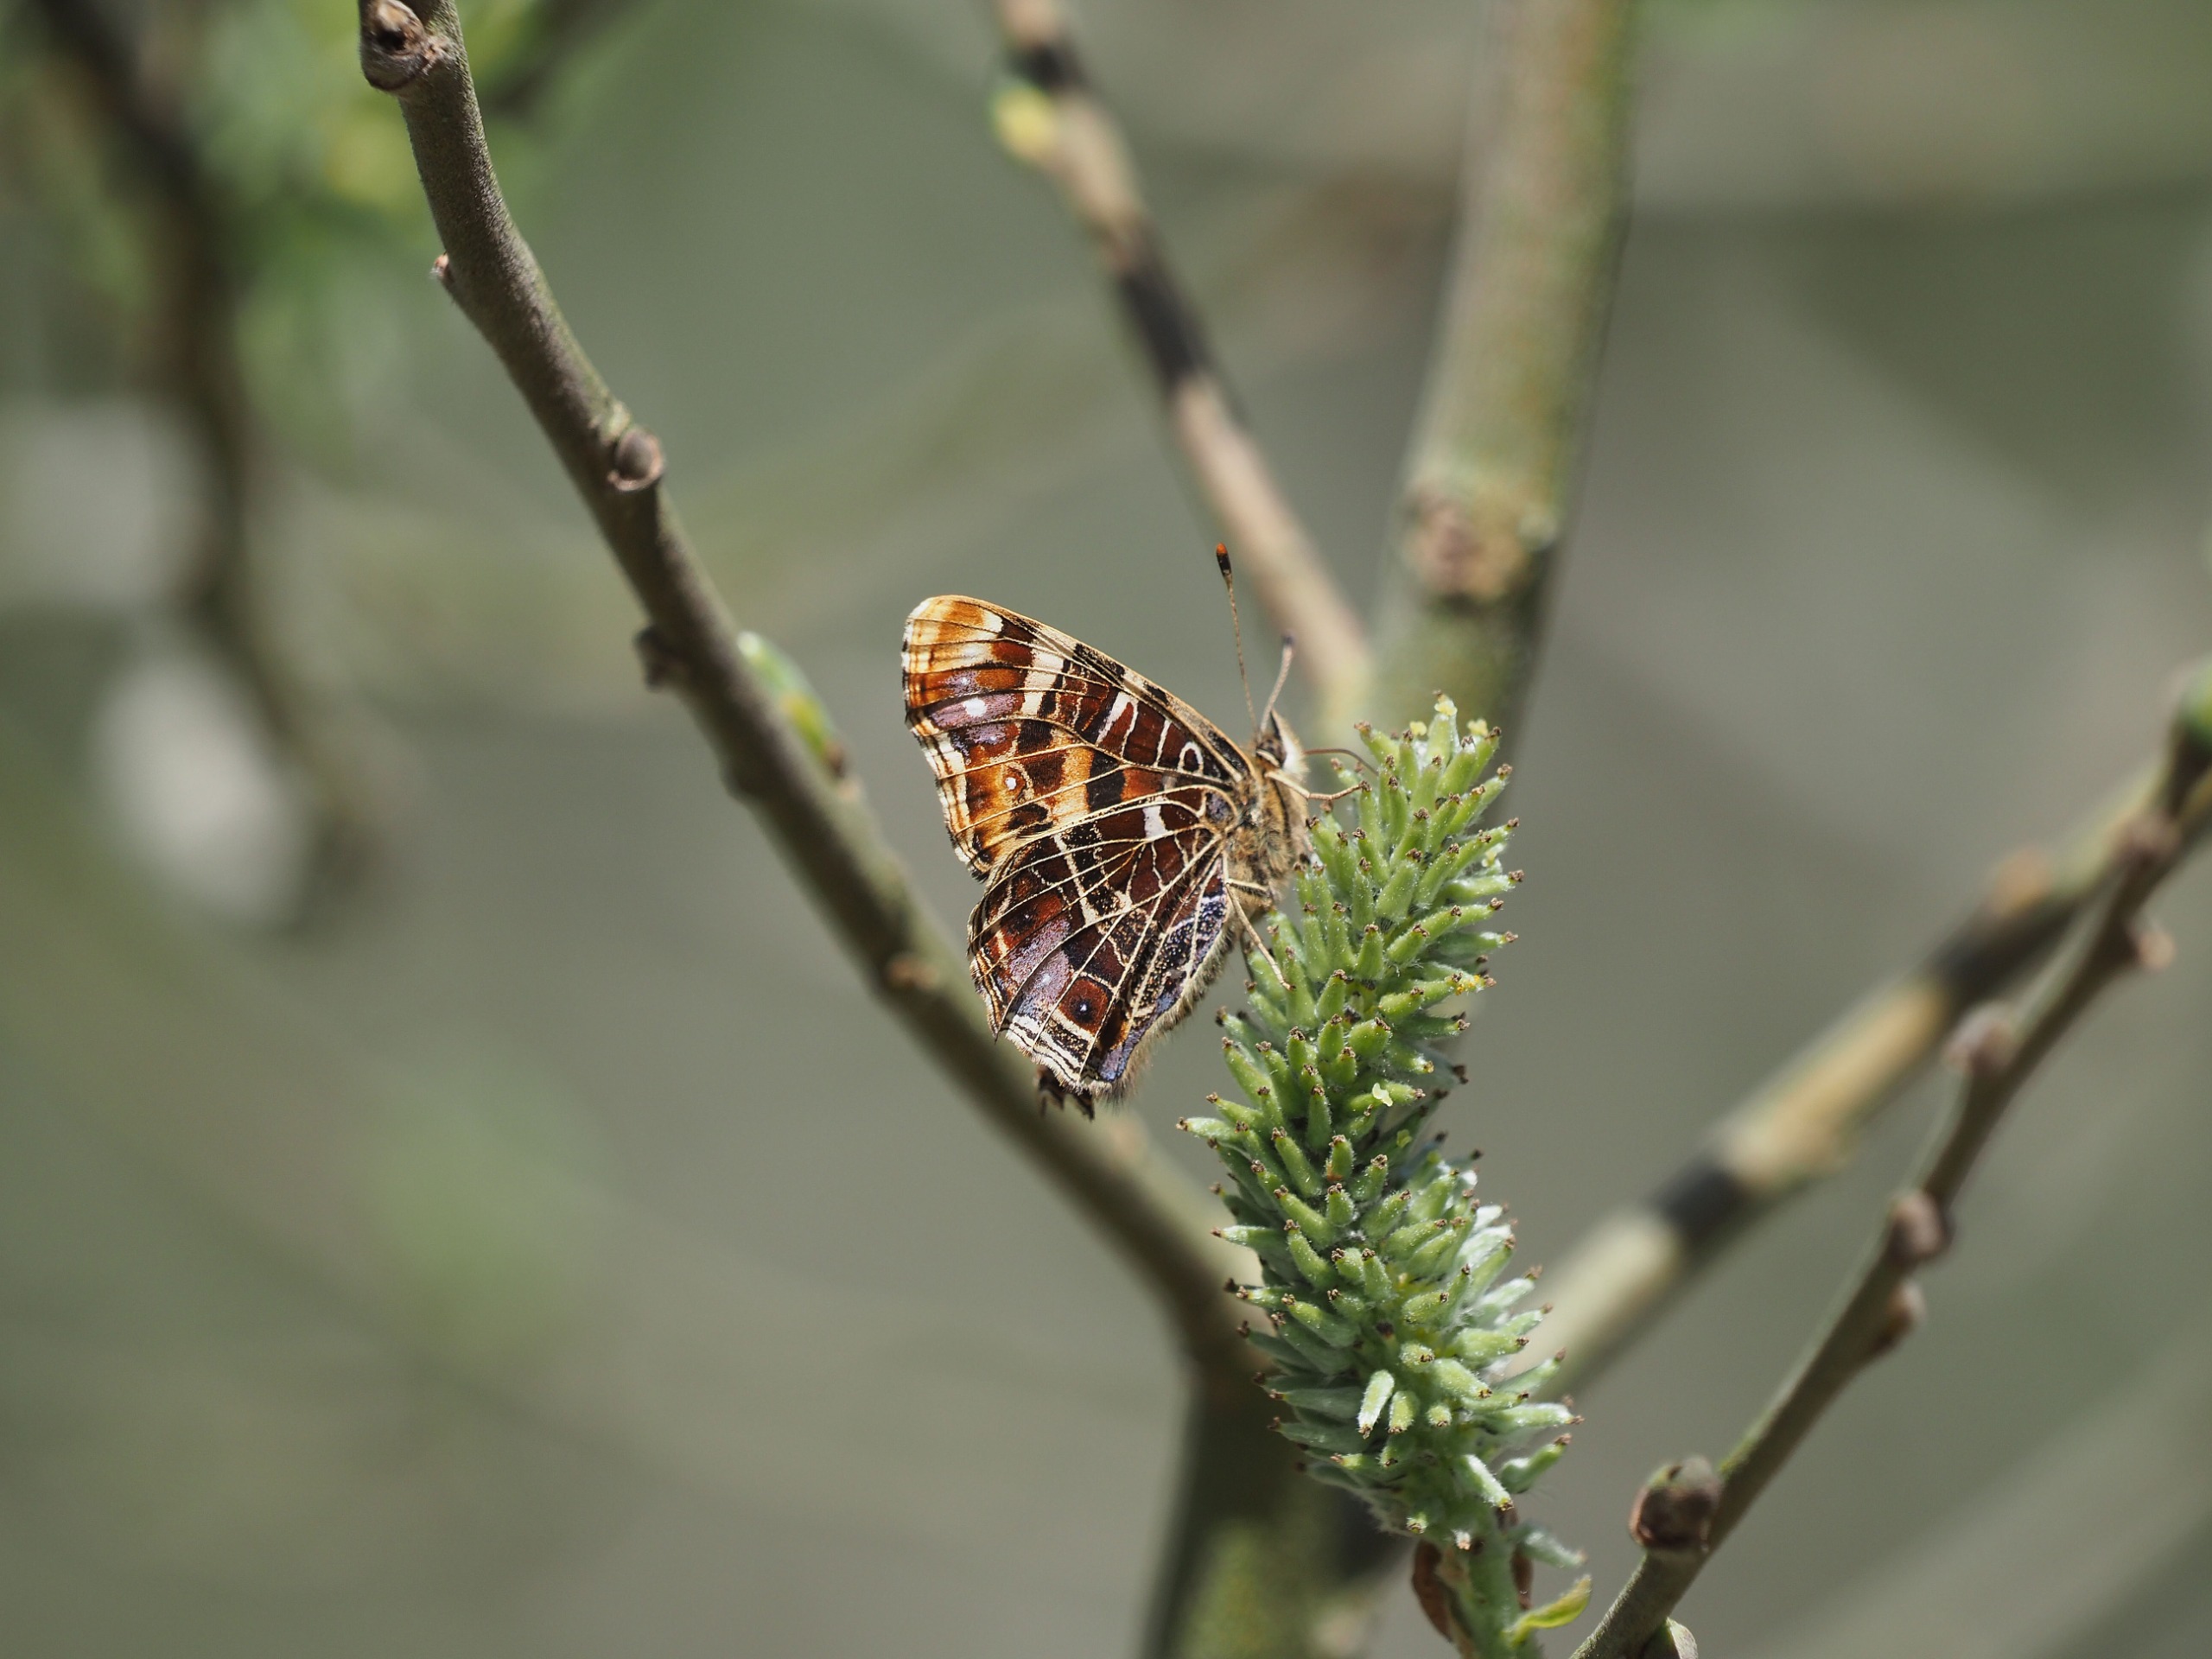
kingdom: Animalia
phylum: Arthropoda
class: Insecta
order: Lepidoptera
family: Nymphalidae
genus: Araschnia
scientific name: Araschnia levana
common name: Nældesommerfugl
